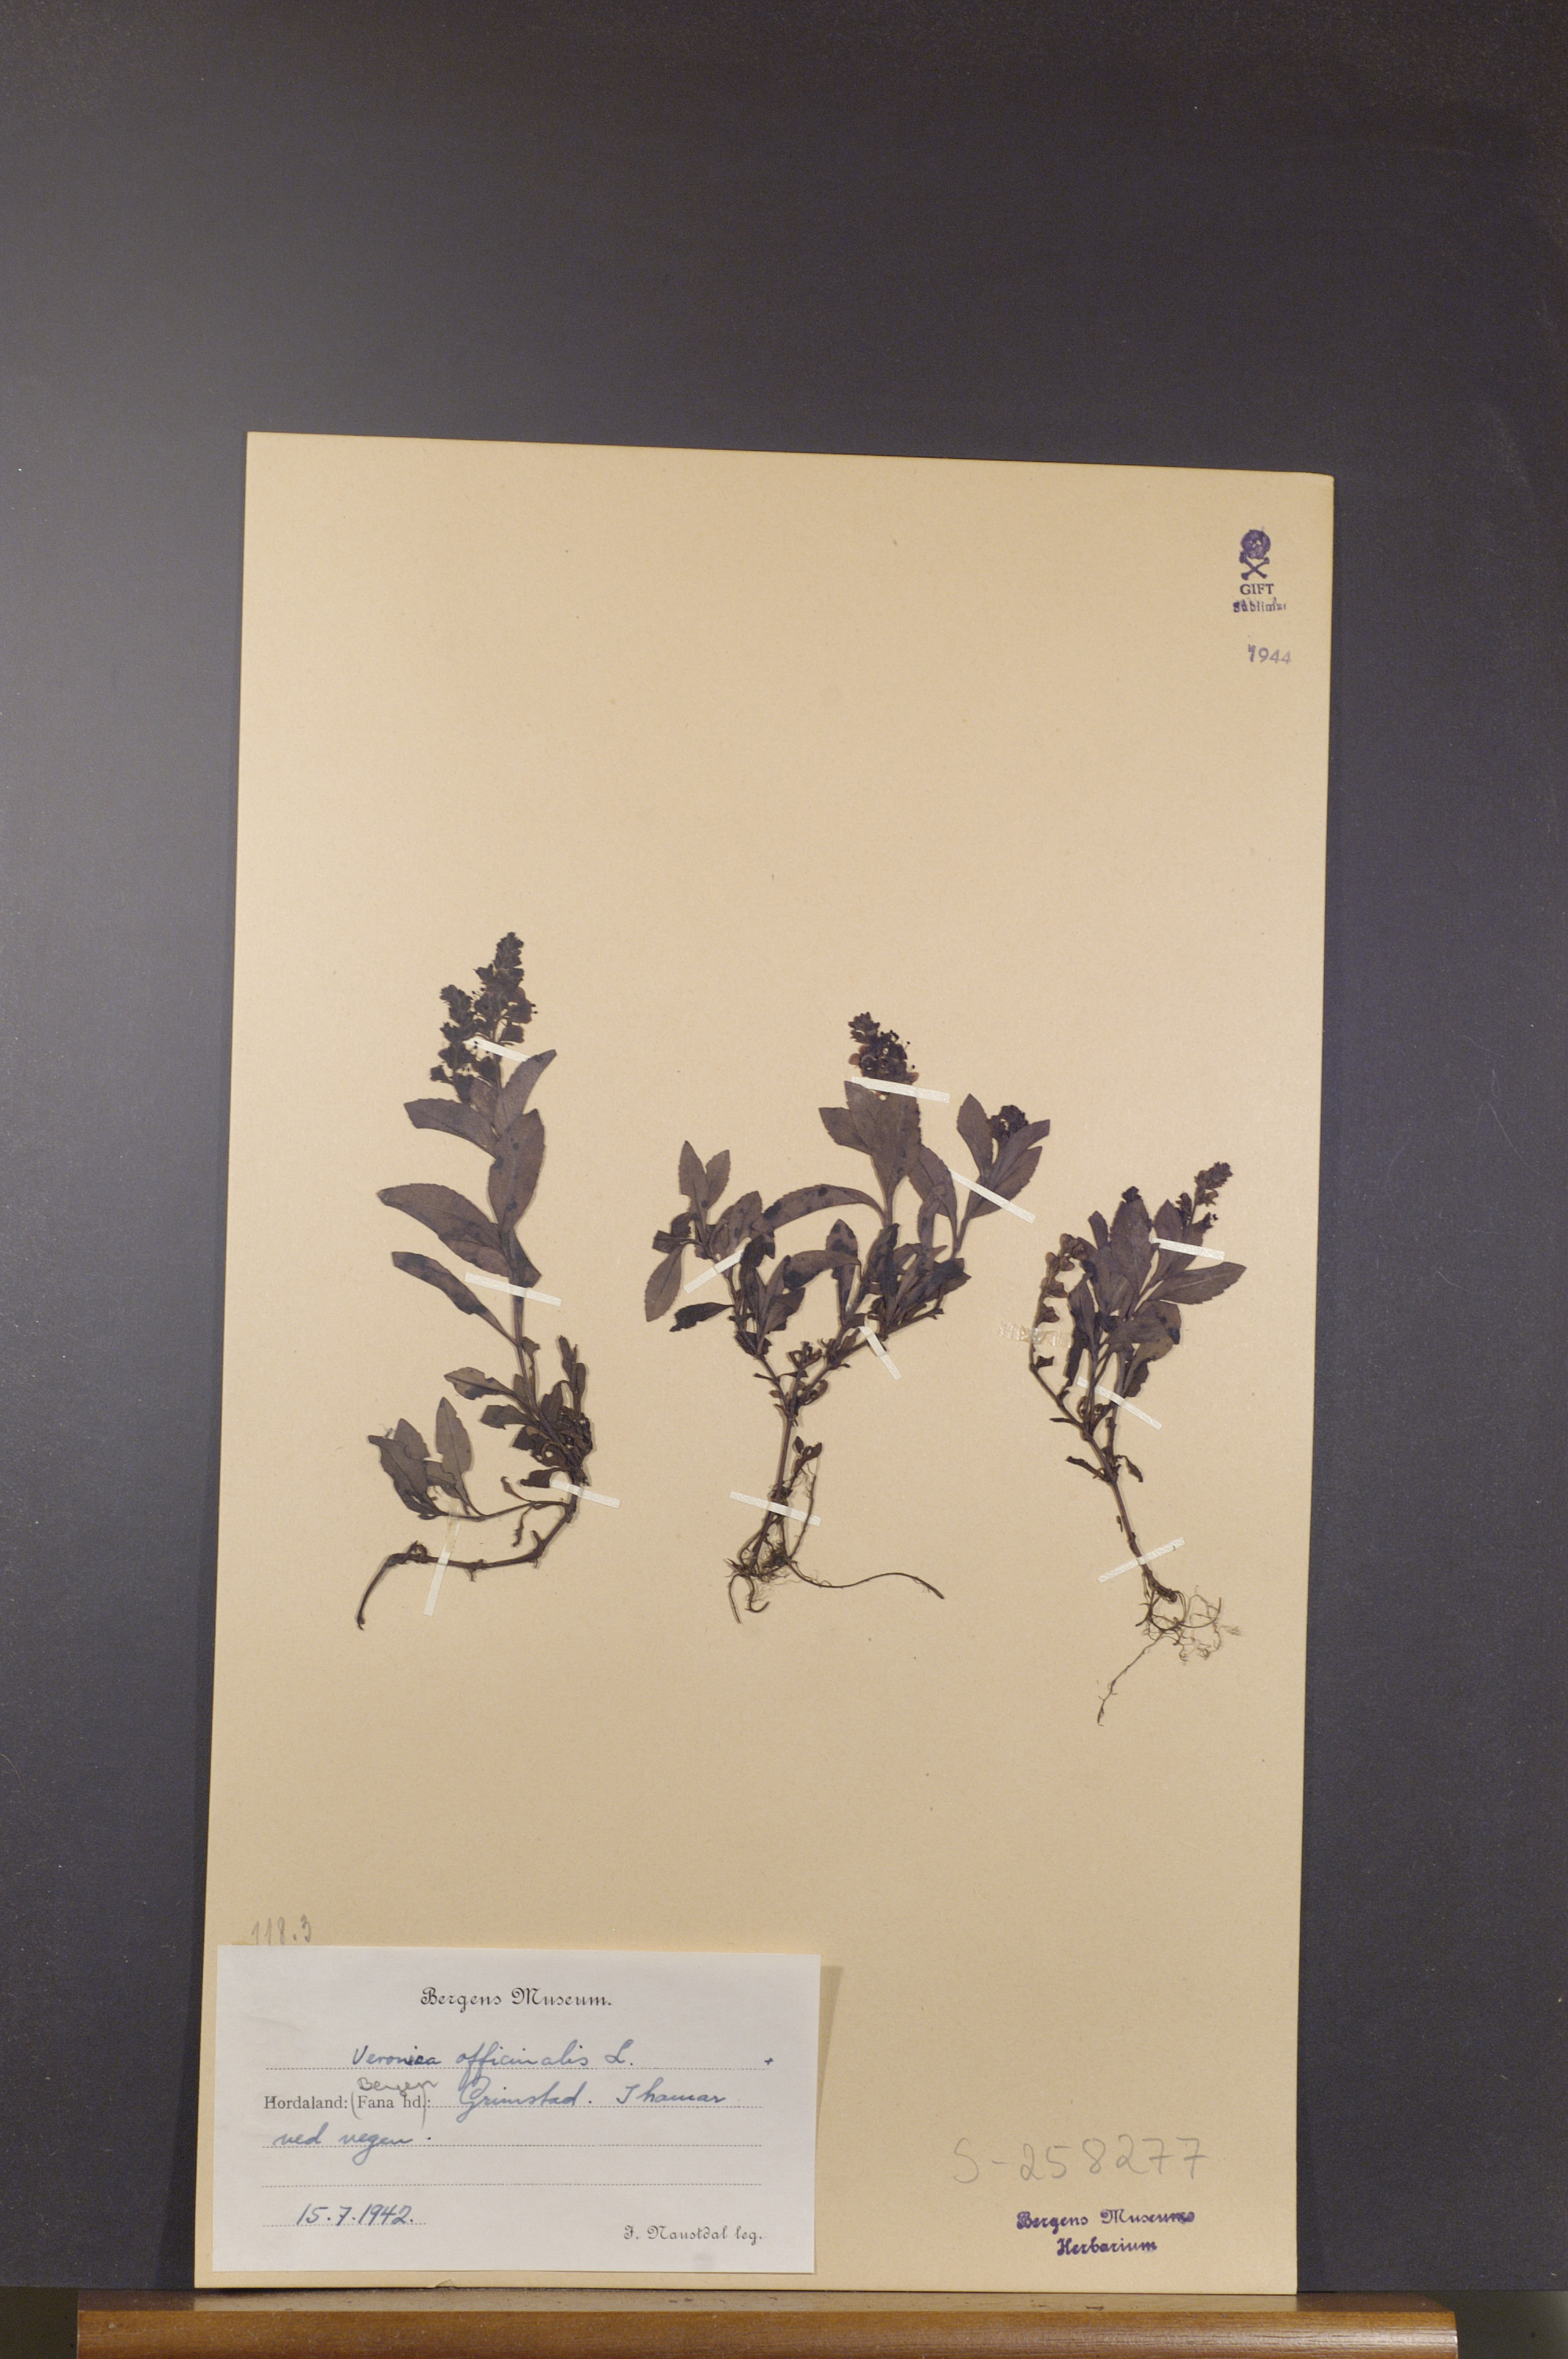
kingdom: Plantae
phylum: Tracheophyta
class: Magnoliopsida
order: Lamiales
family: Plantaginaceae
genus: Veronica
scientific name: Veronica officinalis
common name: Common speedwell
